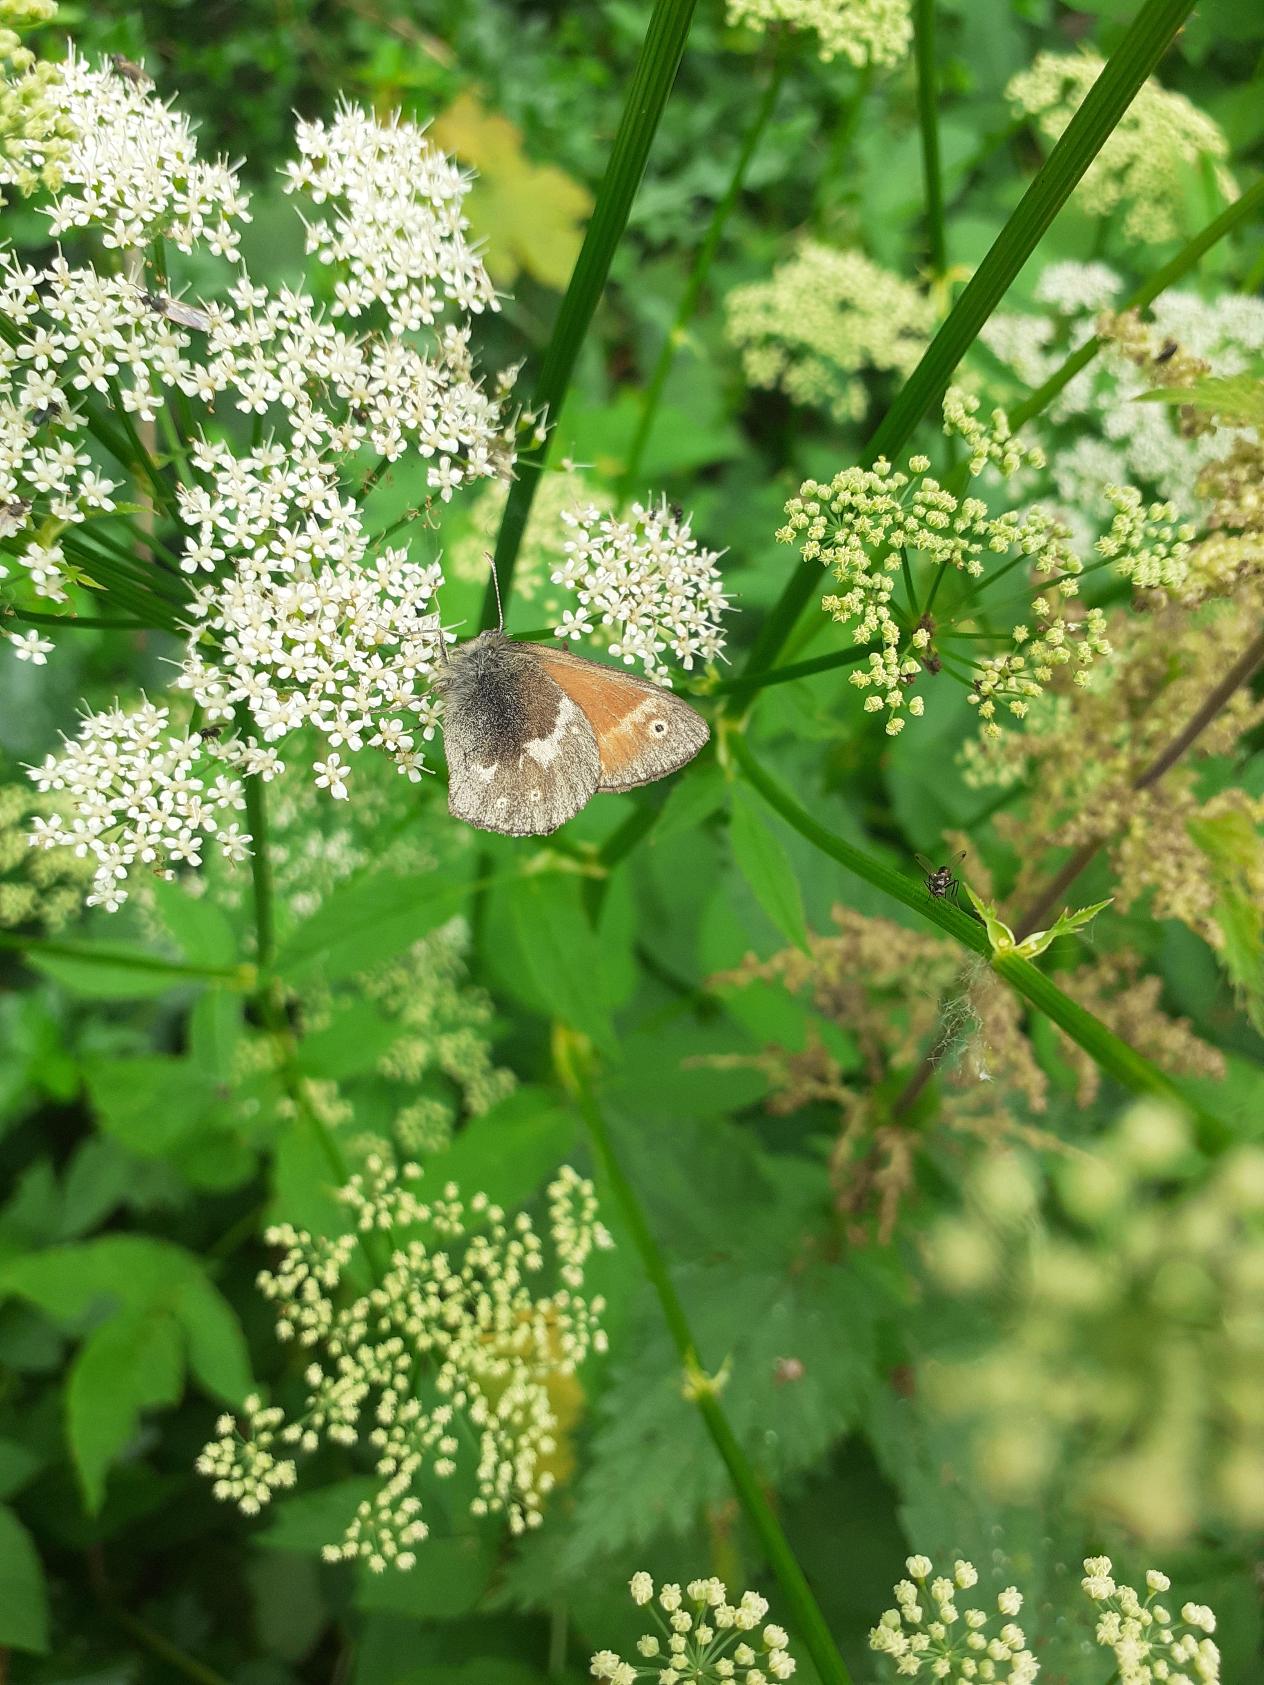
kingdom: Animalia
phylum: Arthropoda
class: Insecta
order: Lepidoptera
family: Nymphalidae
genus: Coenonympha
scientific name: Coenonympha tullia
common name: Moserandøje
